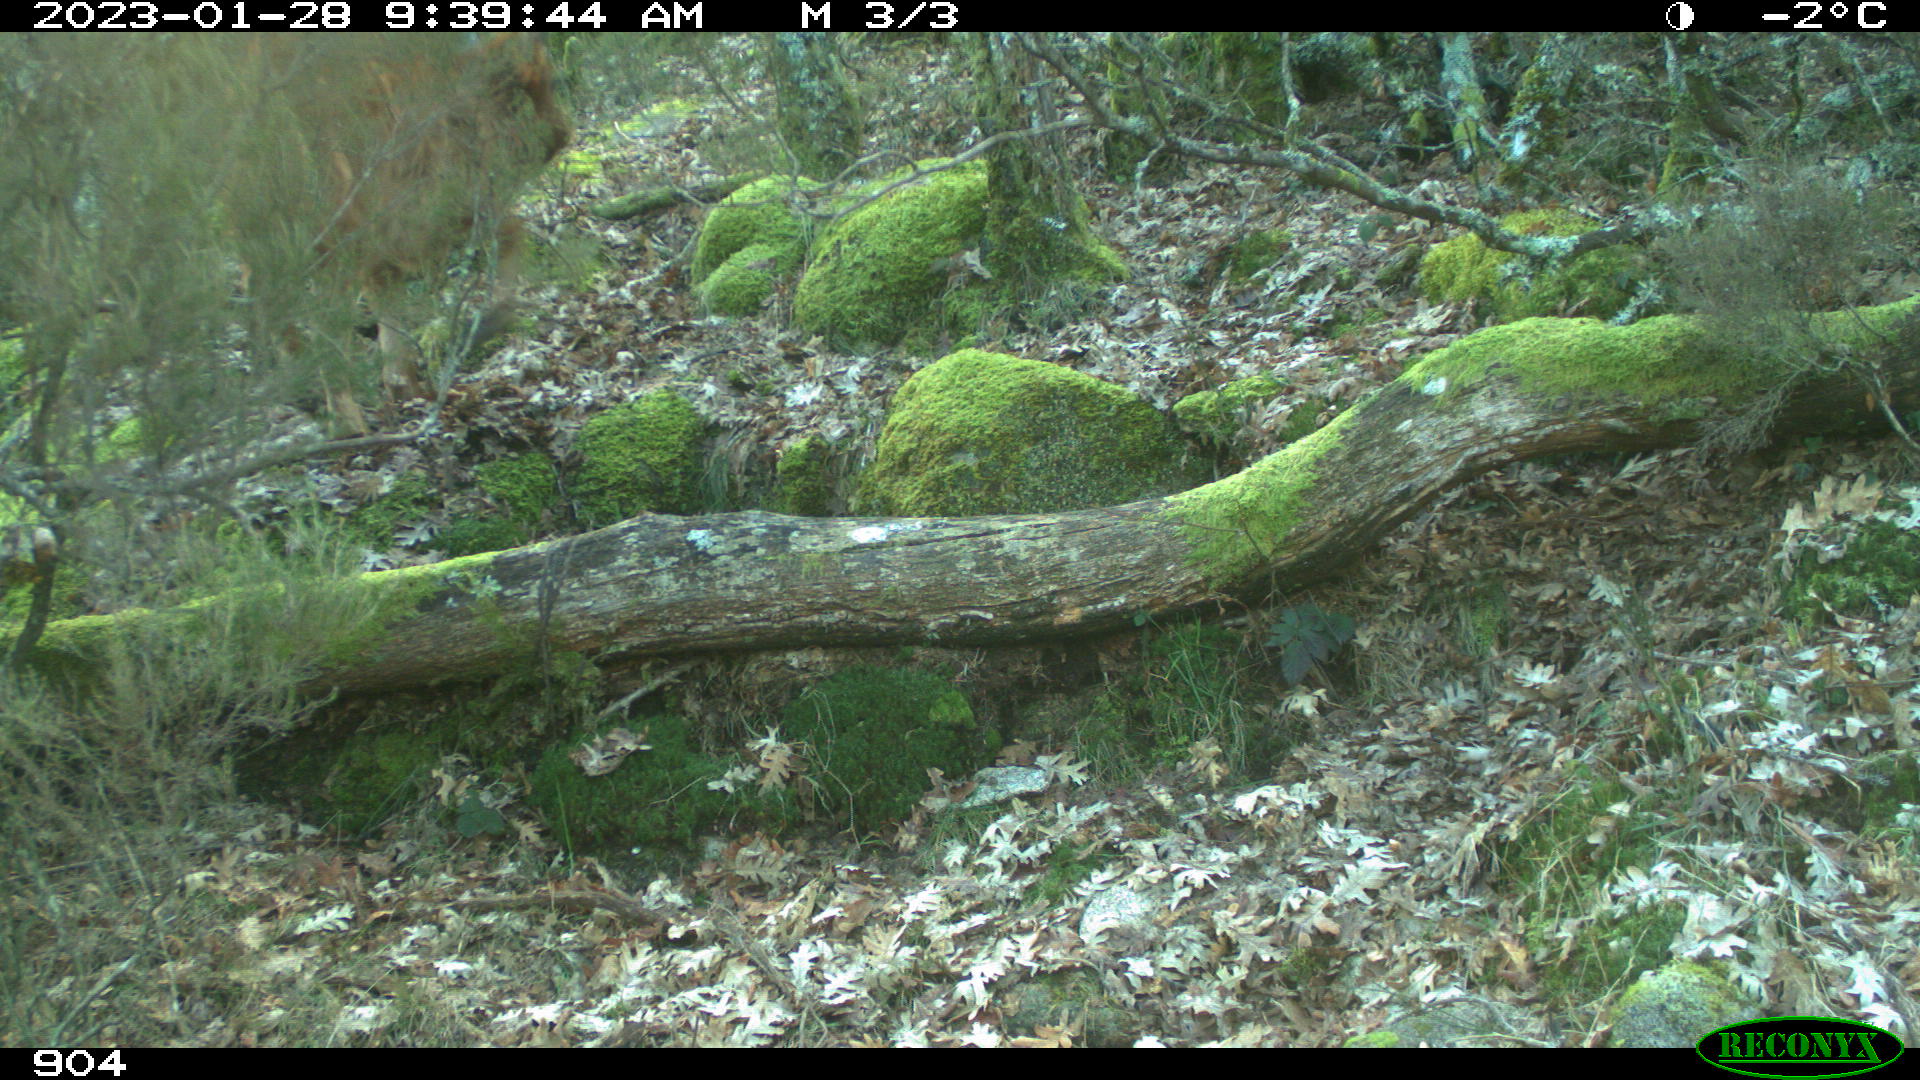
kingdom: Animalia
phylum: Chordata
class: Mammalia
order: Artiodactyla
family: Bovidae
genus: Bos
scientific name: Bos taurus
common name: Domesticated cattle
